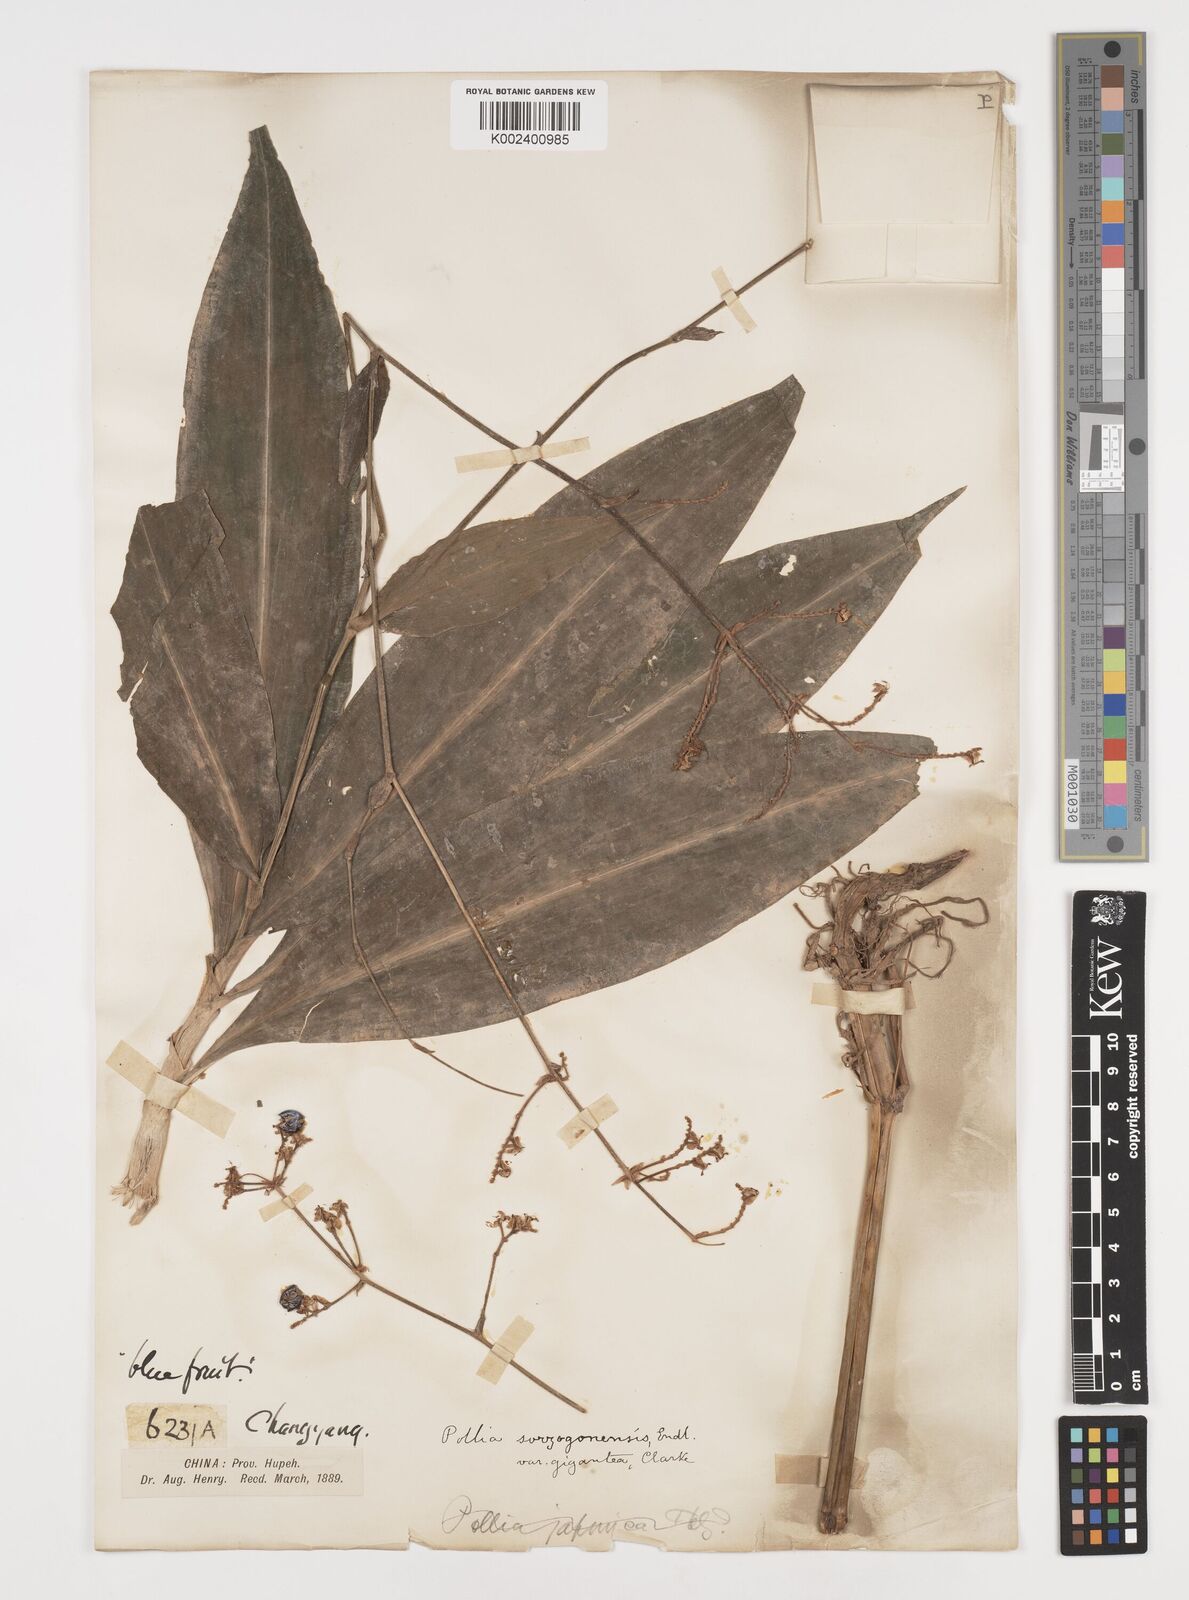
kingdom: Plantae
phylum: Tracheophyta
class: Liliopsida
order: Commelinales
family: Commelinaceae
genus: Pollia
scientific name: Pollia secundiflora
